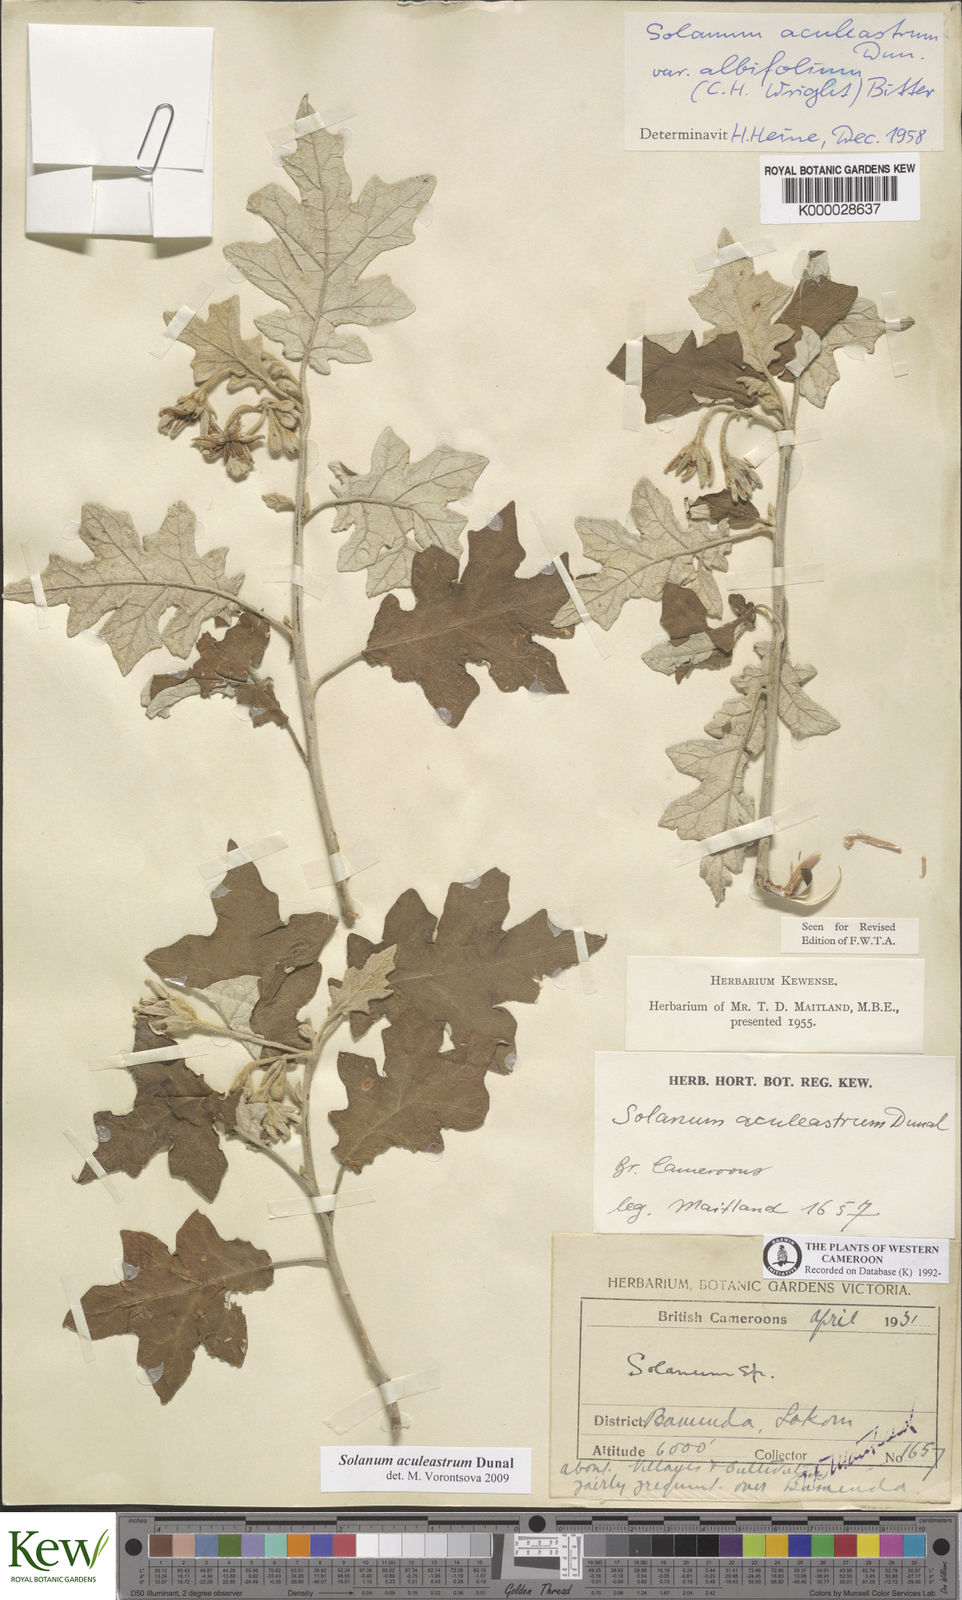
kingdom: Plantae
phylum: Tracheophyta
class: Magnoliopsida
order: Solanales
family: Solanaceae
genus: Solanum
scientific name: Solanum aculeastrum
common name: Goat bitter-apple
